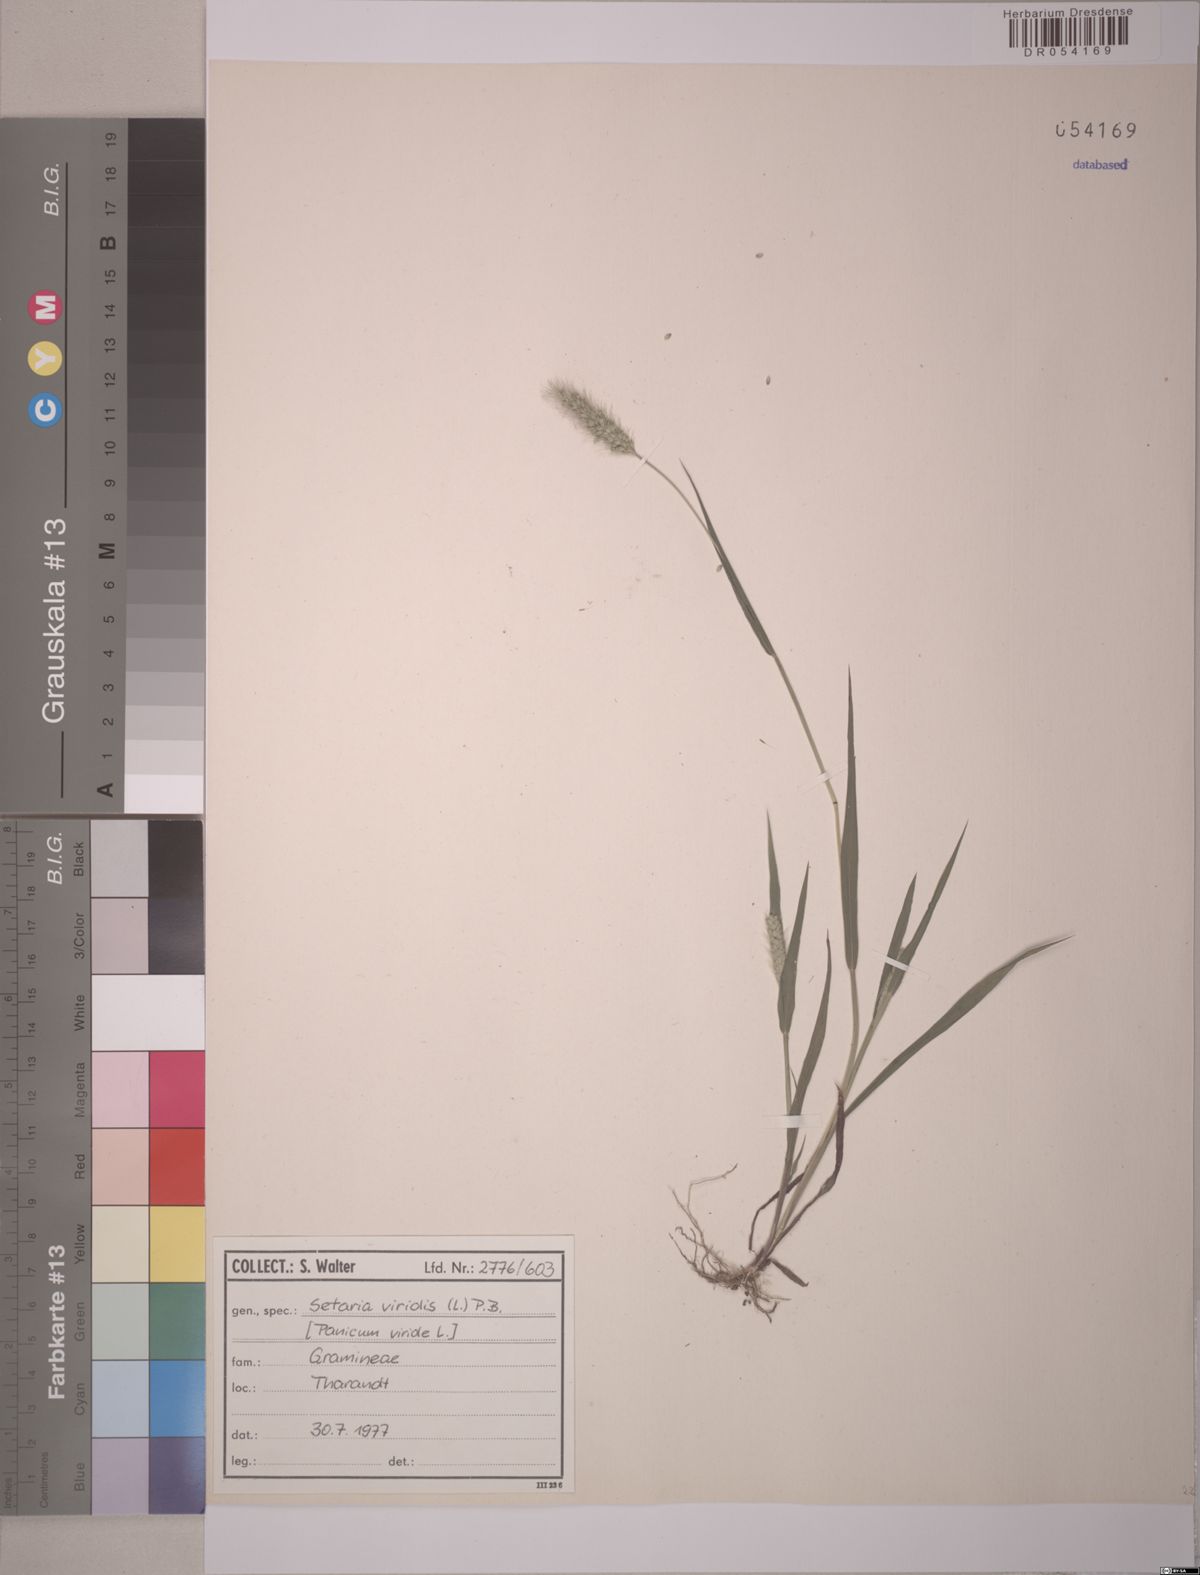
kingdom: Plantae
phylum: Tracheophyta
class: Liliopsida
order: Poales
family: Poaceae
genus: Setaria
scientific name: Setaria viridis
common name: Green bristlegrass
